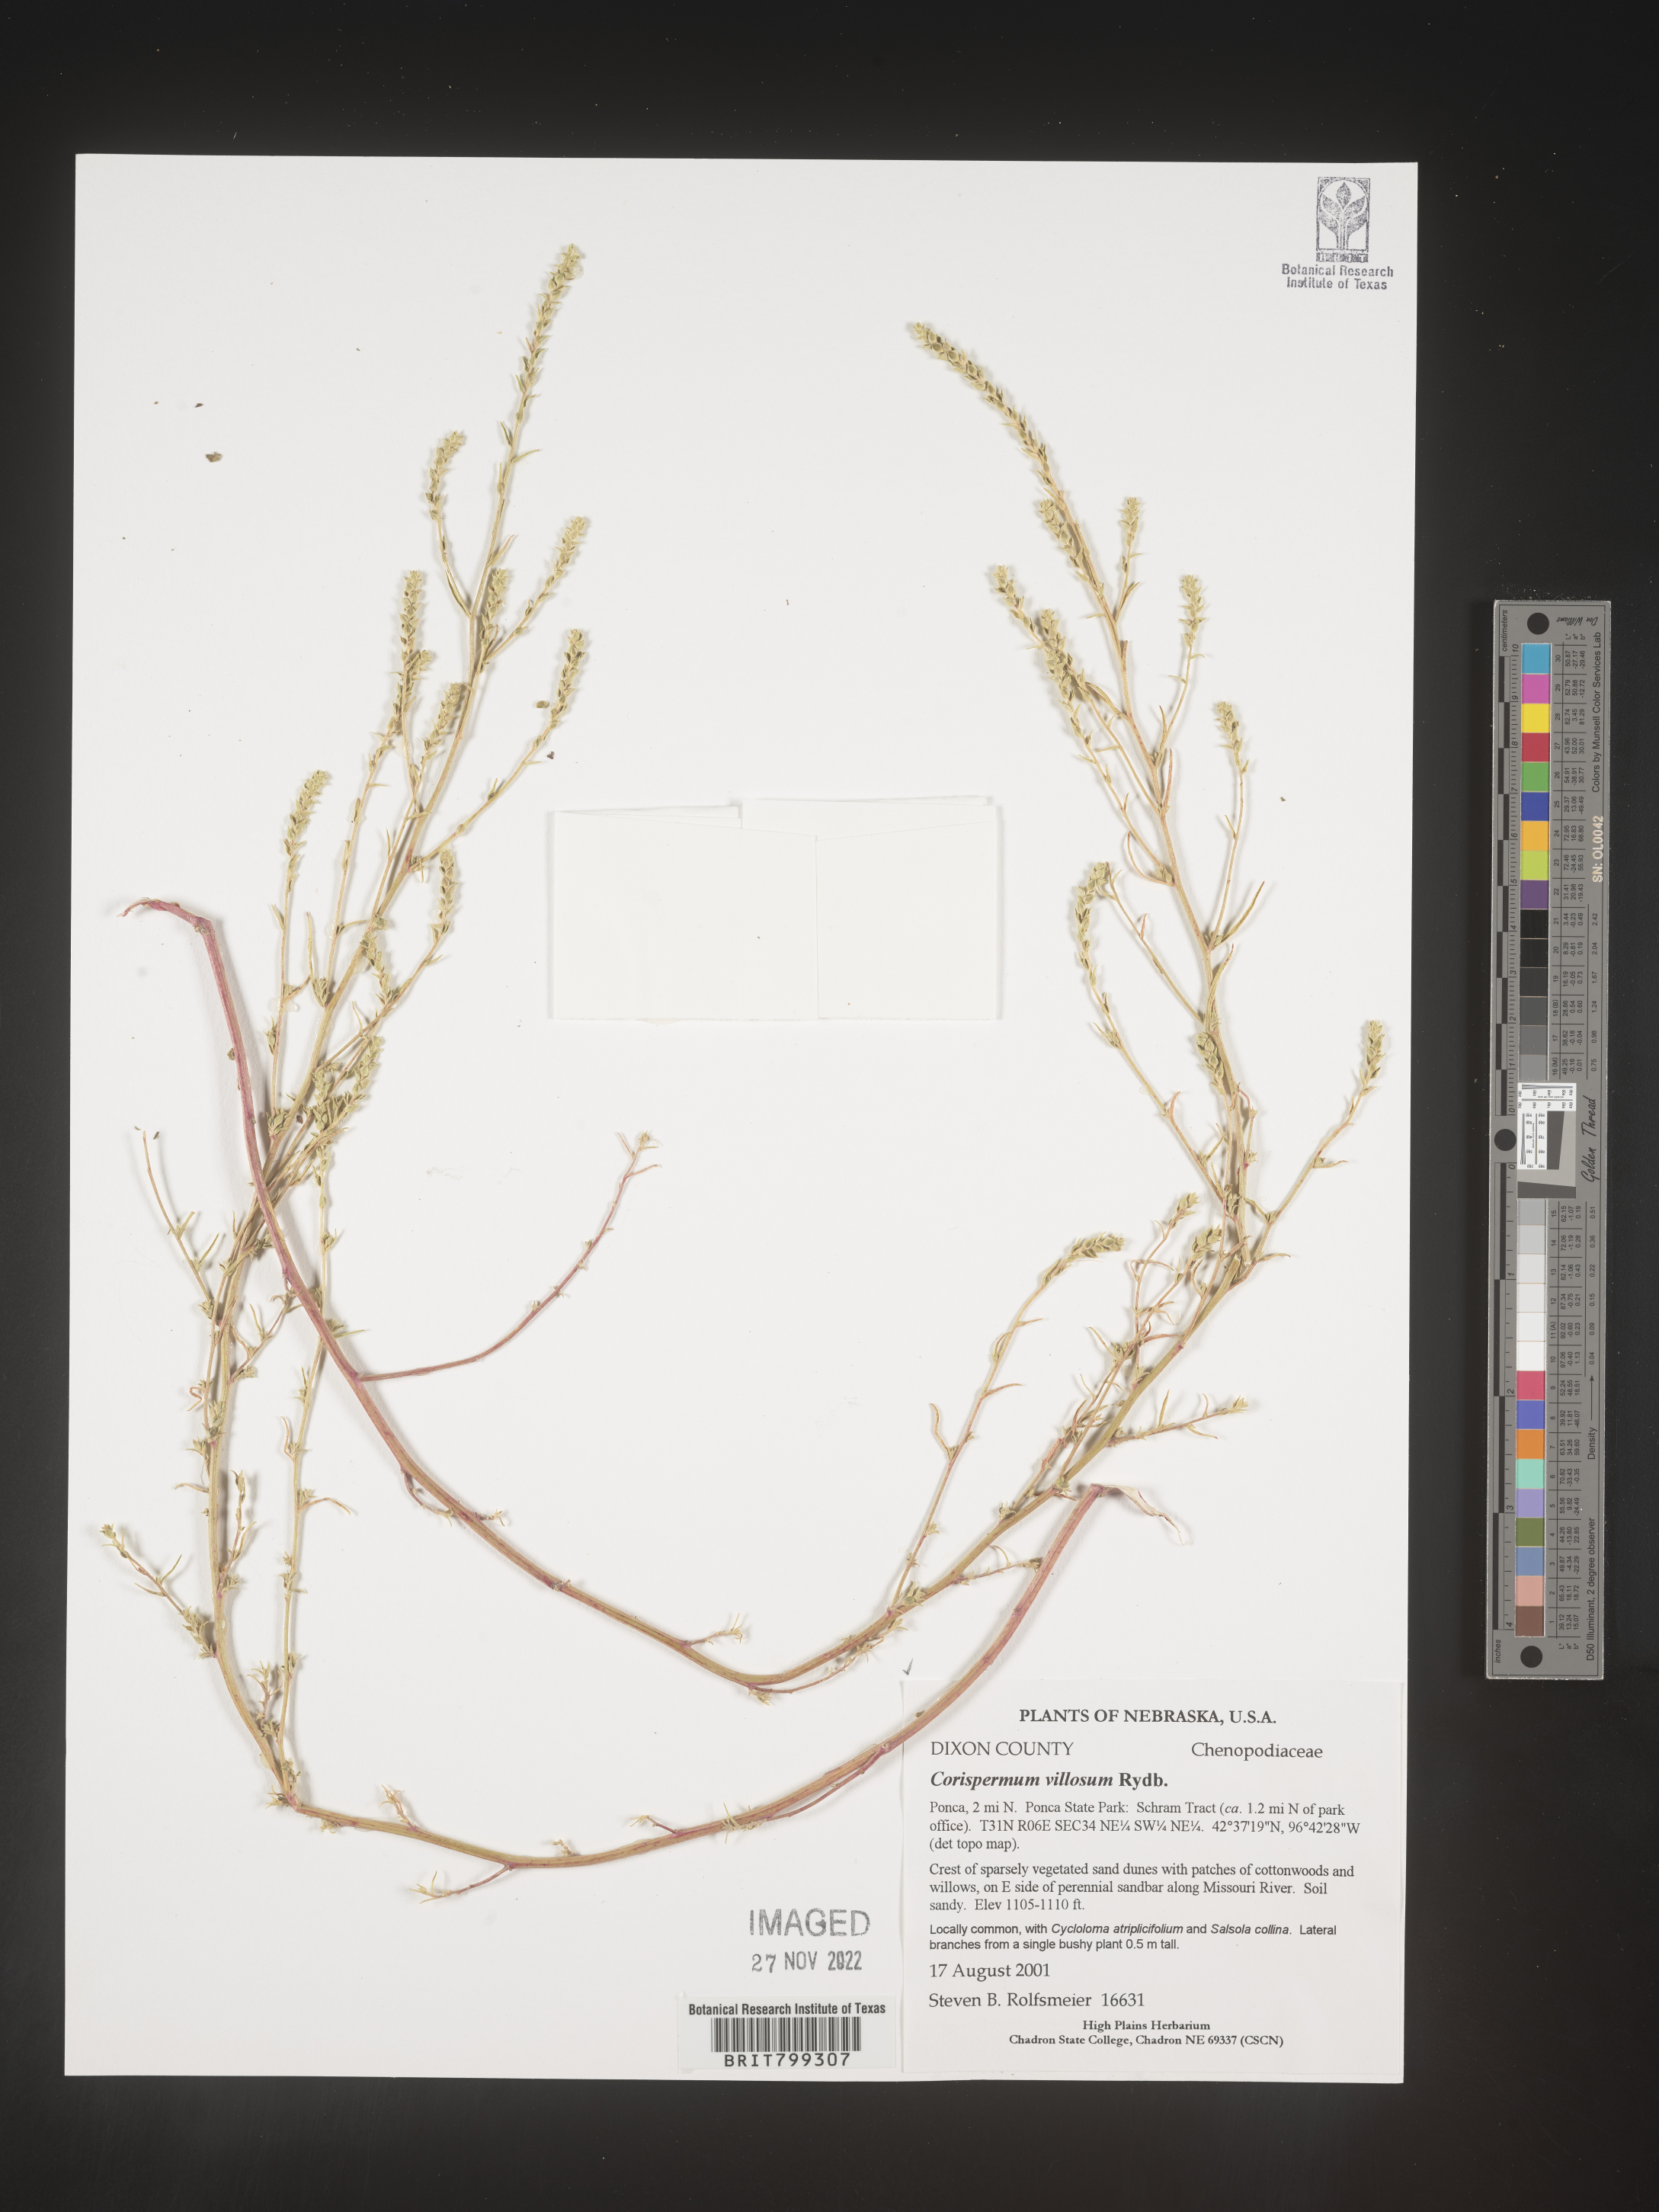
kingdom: Plantae
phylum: Tracheophyta
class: Magnoliopsida
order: Caryophyllales
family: Amaranthaceae
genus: Corispermum
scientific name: Corispermum
